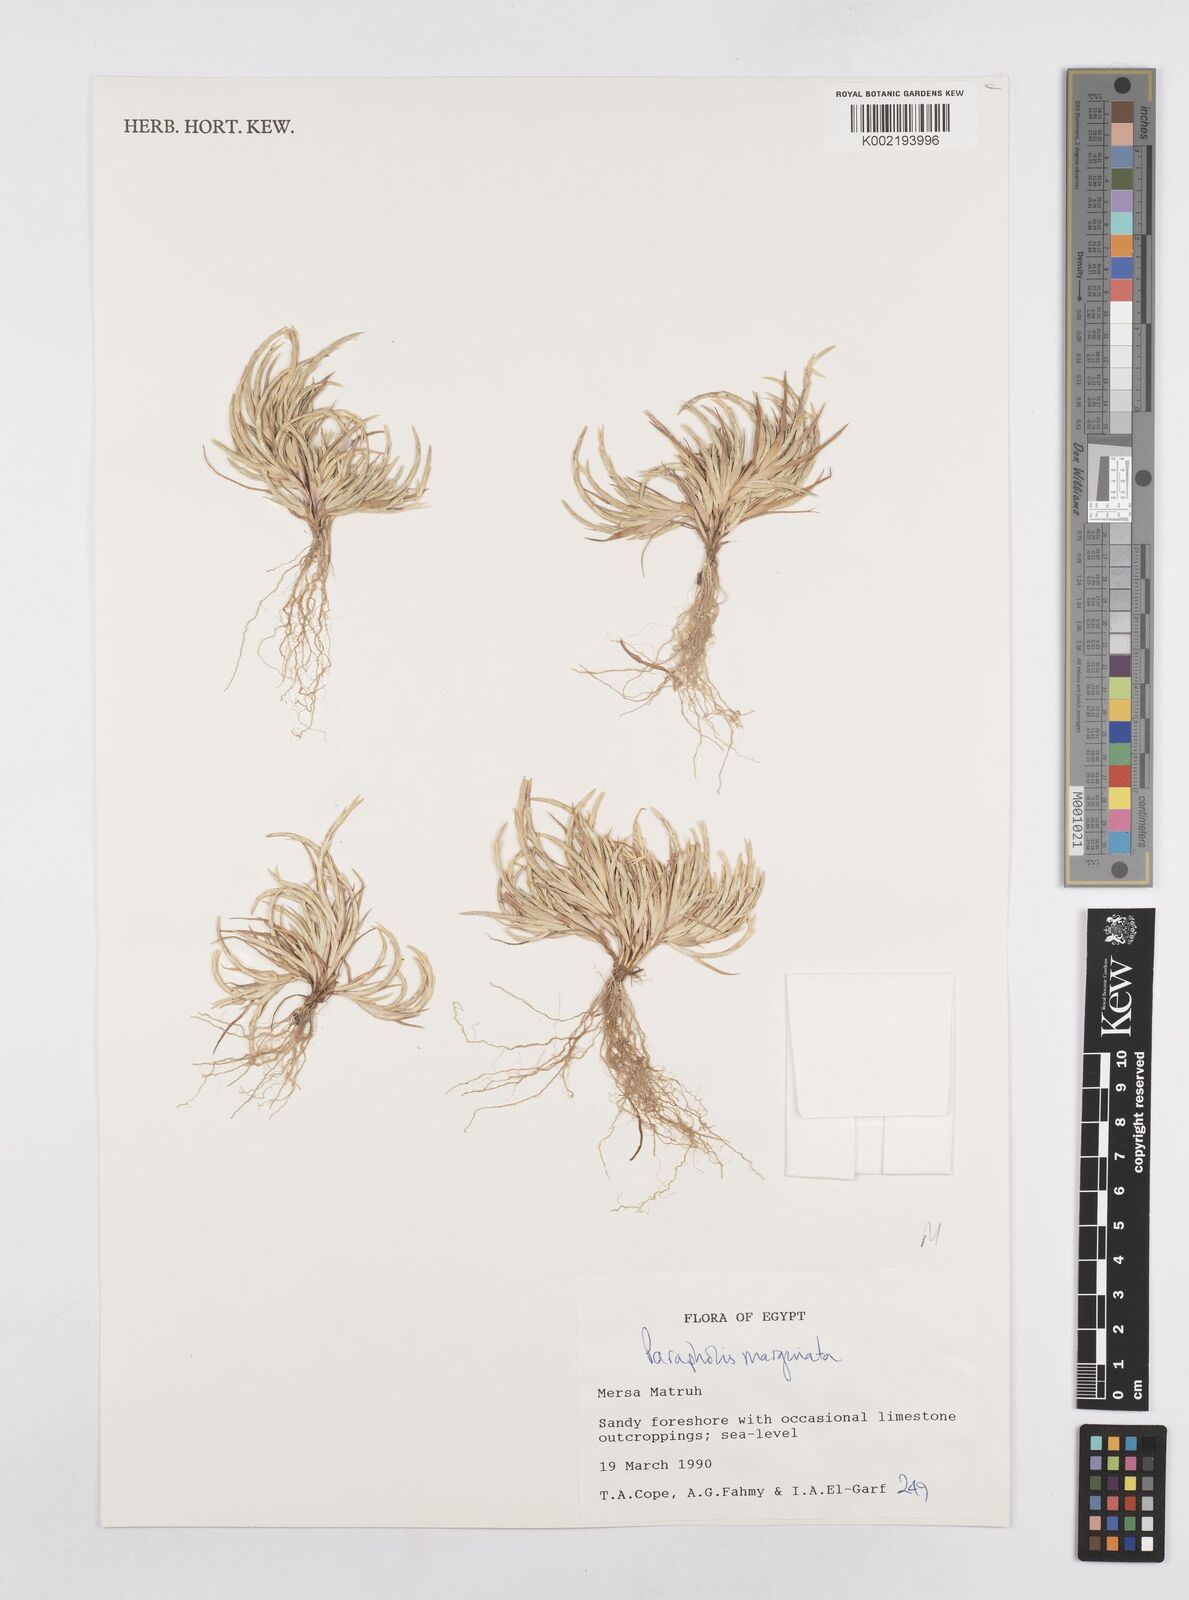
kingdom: Plantae
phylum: Tracheophyta
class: Liliopsida
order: Poales
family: Poaceae
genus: Parapholis
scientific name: Parapholis marginata
